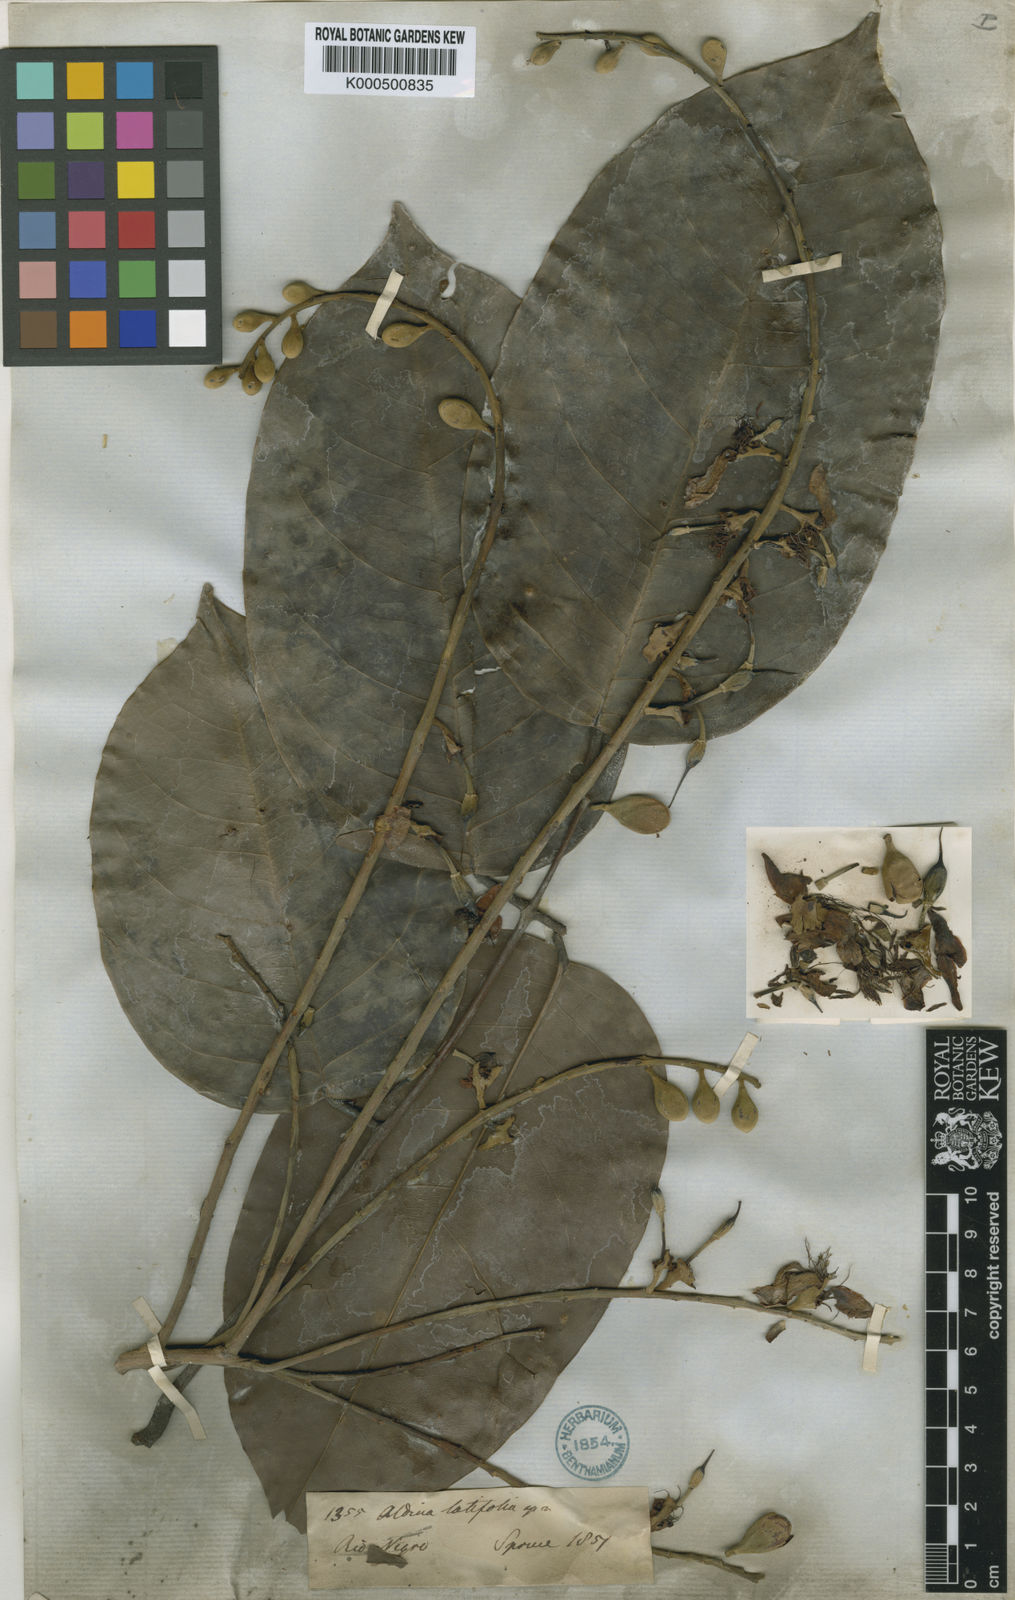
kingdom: Plantae
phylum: Tracheophyta
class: Magnoliopsida
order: Fabales
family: Fabaceae
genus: Aldina
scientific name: Aldina latifolia
